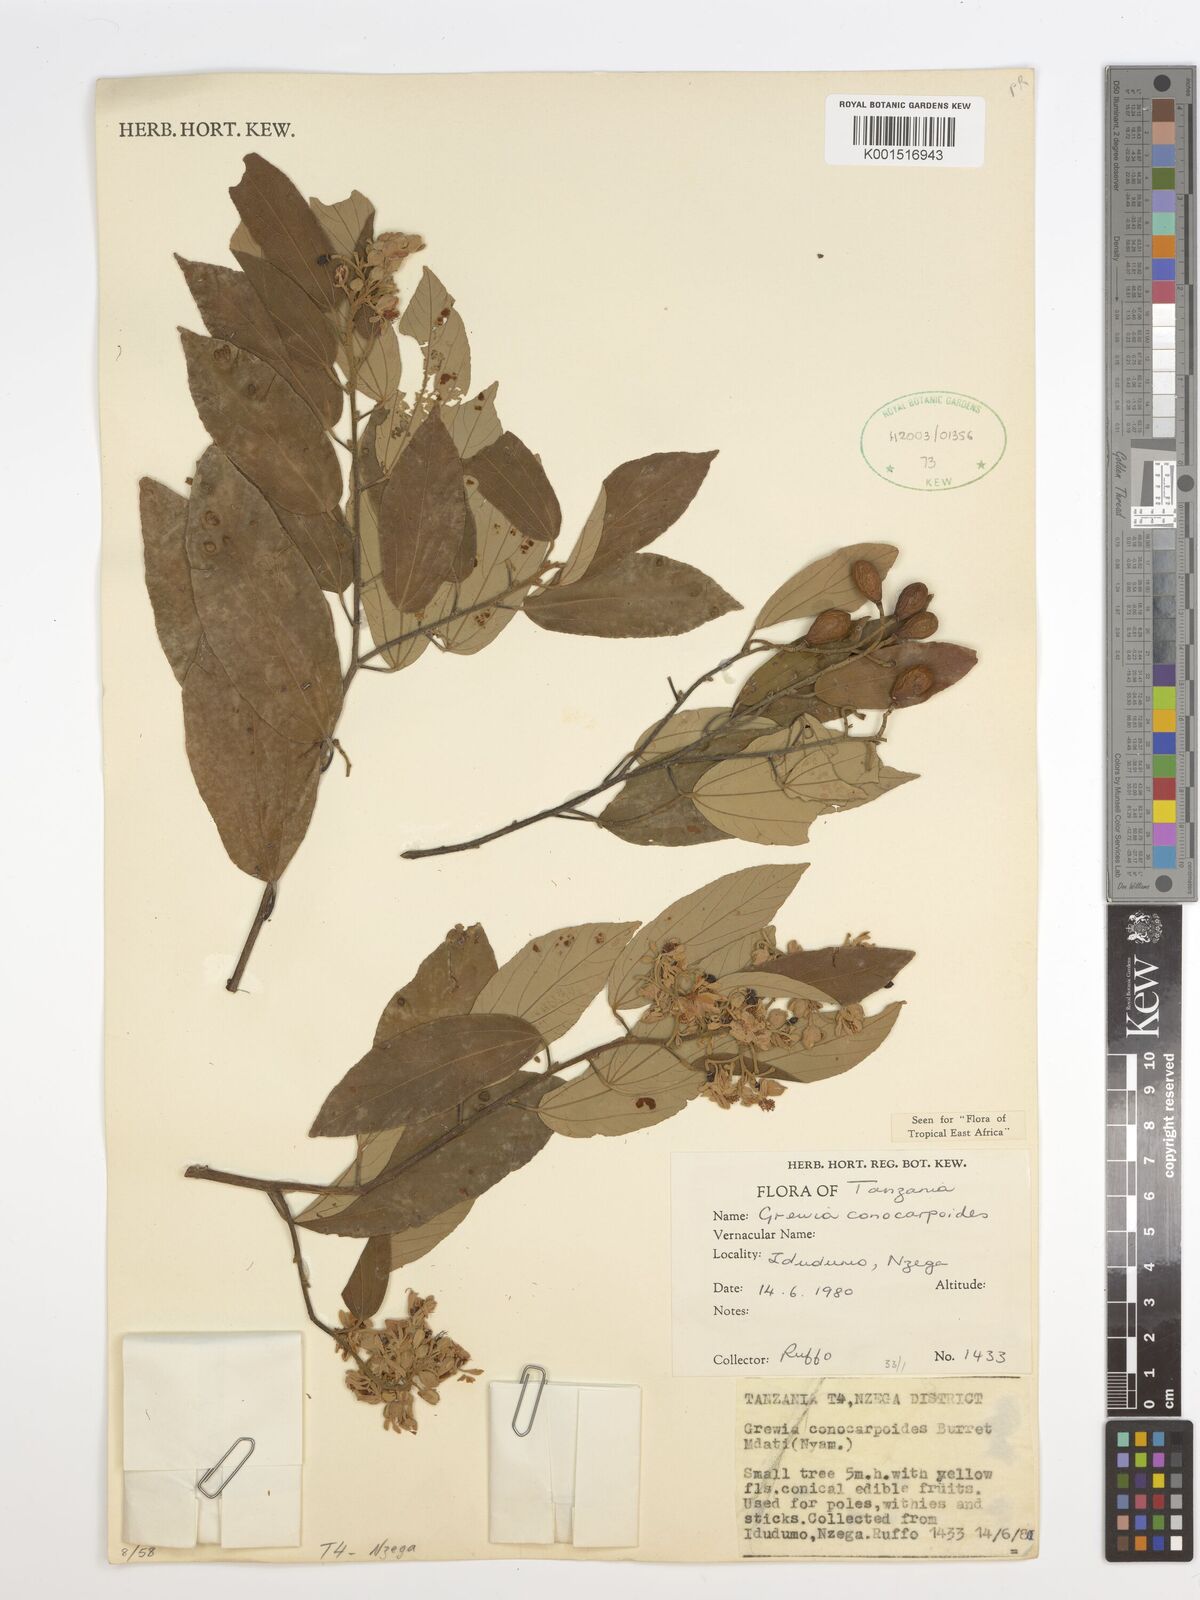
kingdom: Plantae
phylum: Tracheophyta
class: Magnoliopsida
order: Malvales
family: Malvaceae
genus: Microcos
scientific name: Microcos conocarpoides
